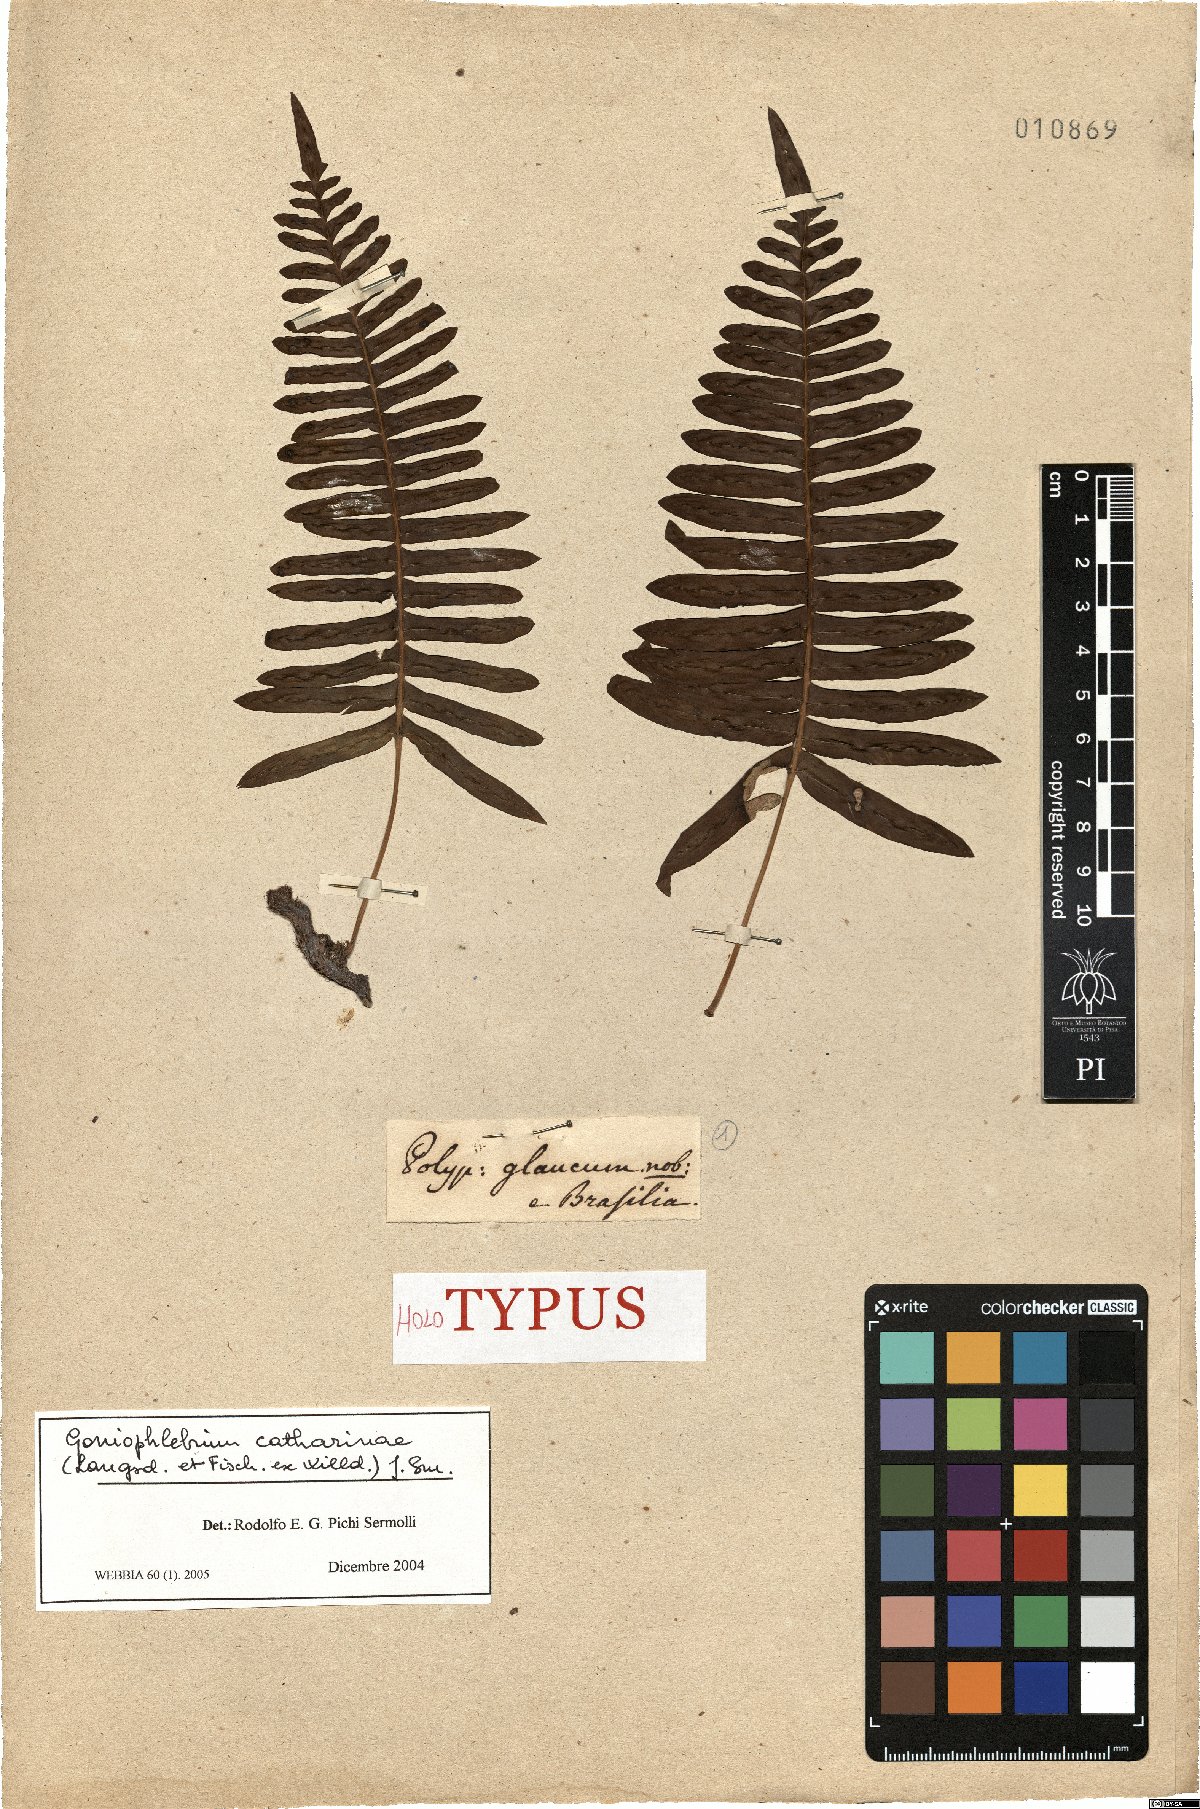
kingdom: Plantae
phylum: Tracheophyta
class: Polypodiopsida
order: Polypodiales
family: Polypodiaceae
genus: Serpocaulon
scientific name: Serpocaulon catharinae
